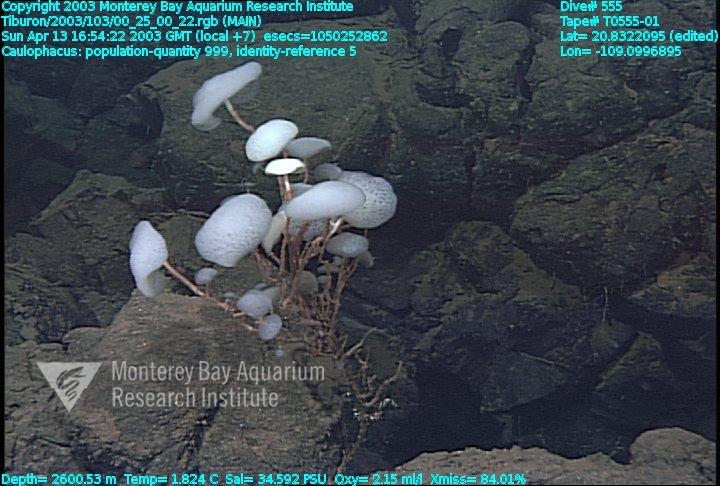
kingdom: Animalia
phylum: Porifera
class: Hexactinellida
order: Lyssacinosida
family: Rossellidae
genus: Caulophacus
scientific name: Caulophacus
